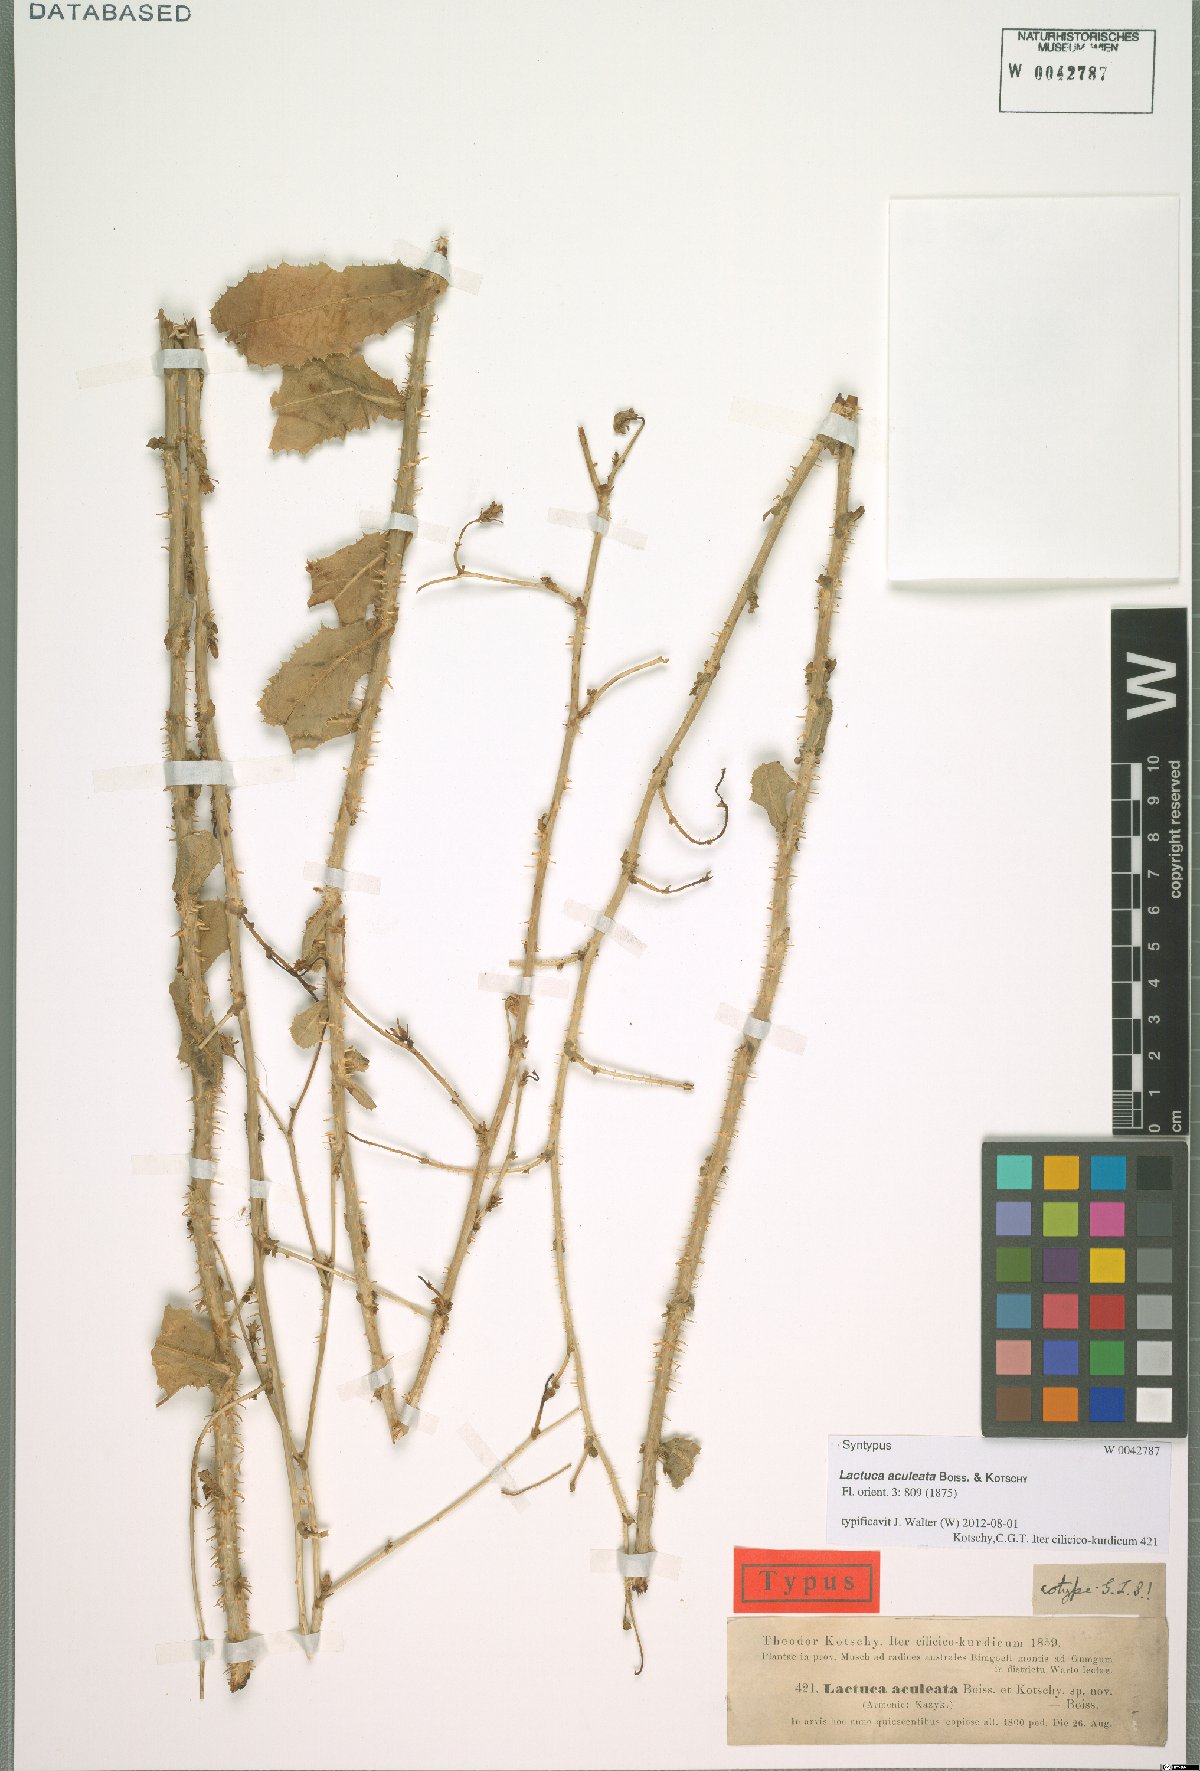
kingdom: Plantae
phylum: Tracheophyta
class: Magnoliopsida
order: Asterales
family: Asteraceae
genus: Lactuca
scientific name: Lactuca aculeata
